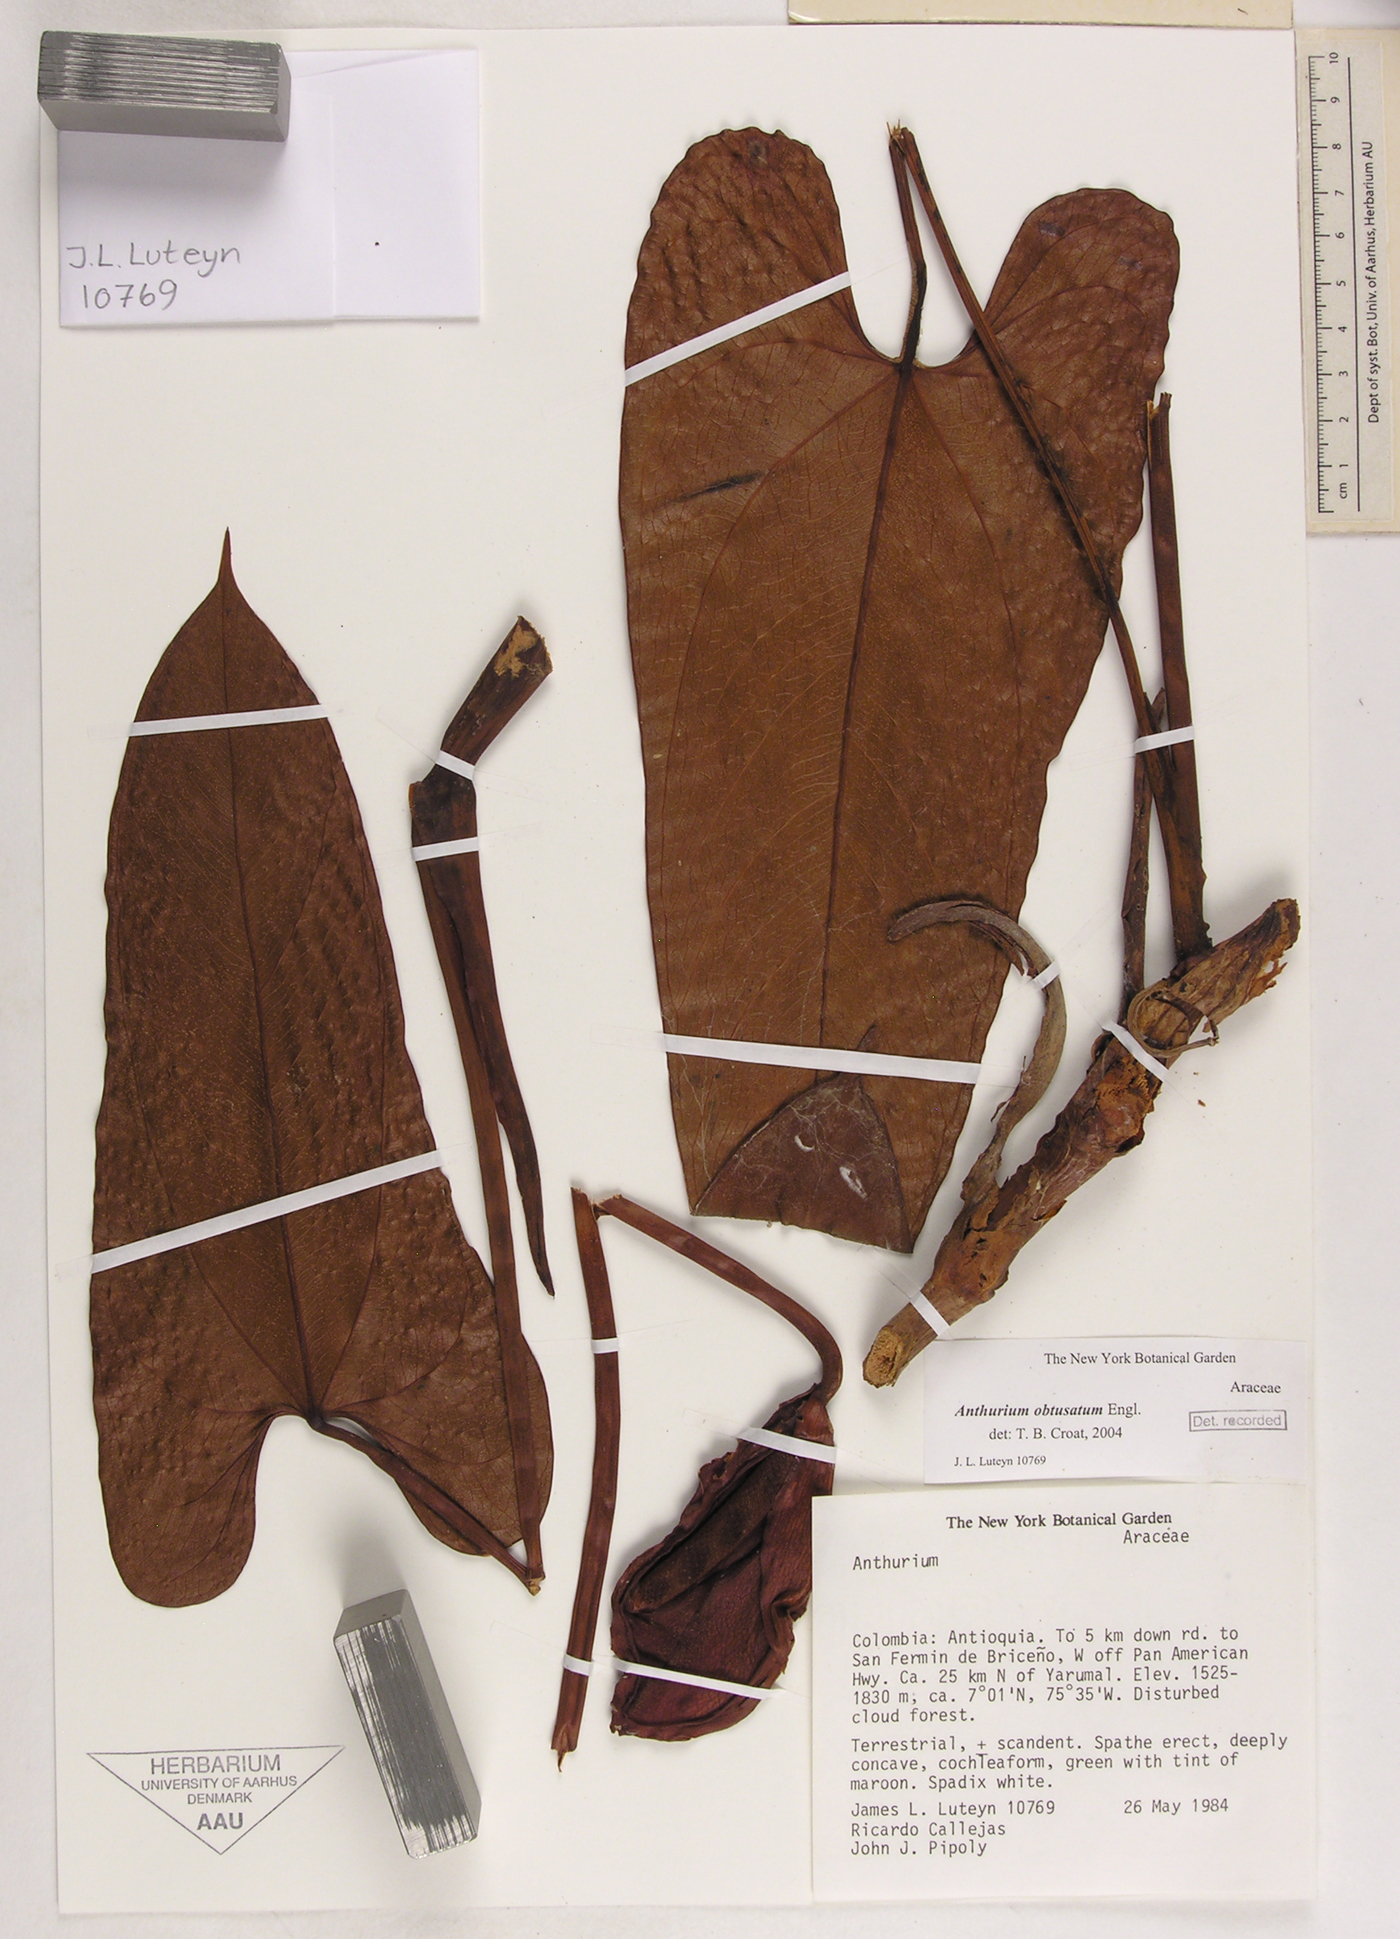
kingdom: Plantae
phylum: Tracheophyta
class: Liliopsida
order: Alismatales
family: Araceae
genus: Anthurium
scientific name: Anthurium obtusatum
